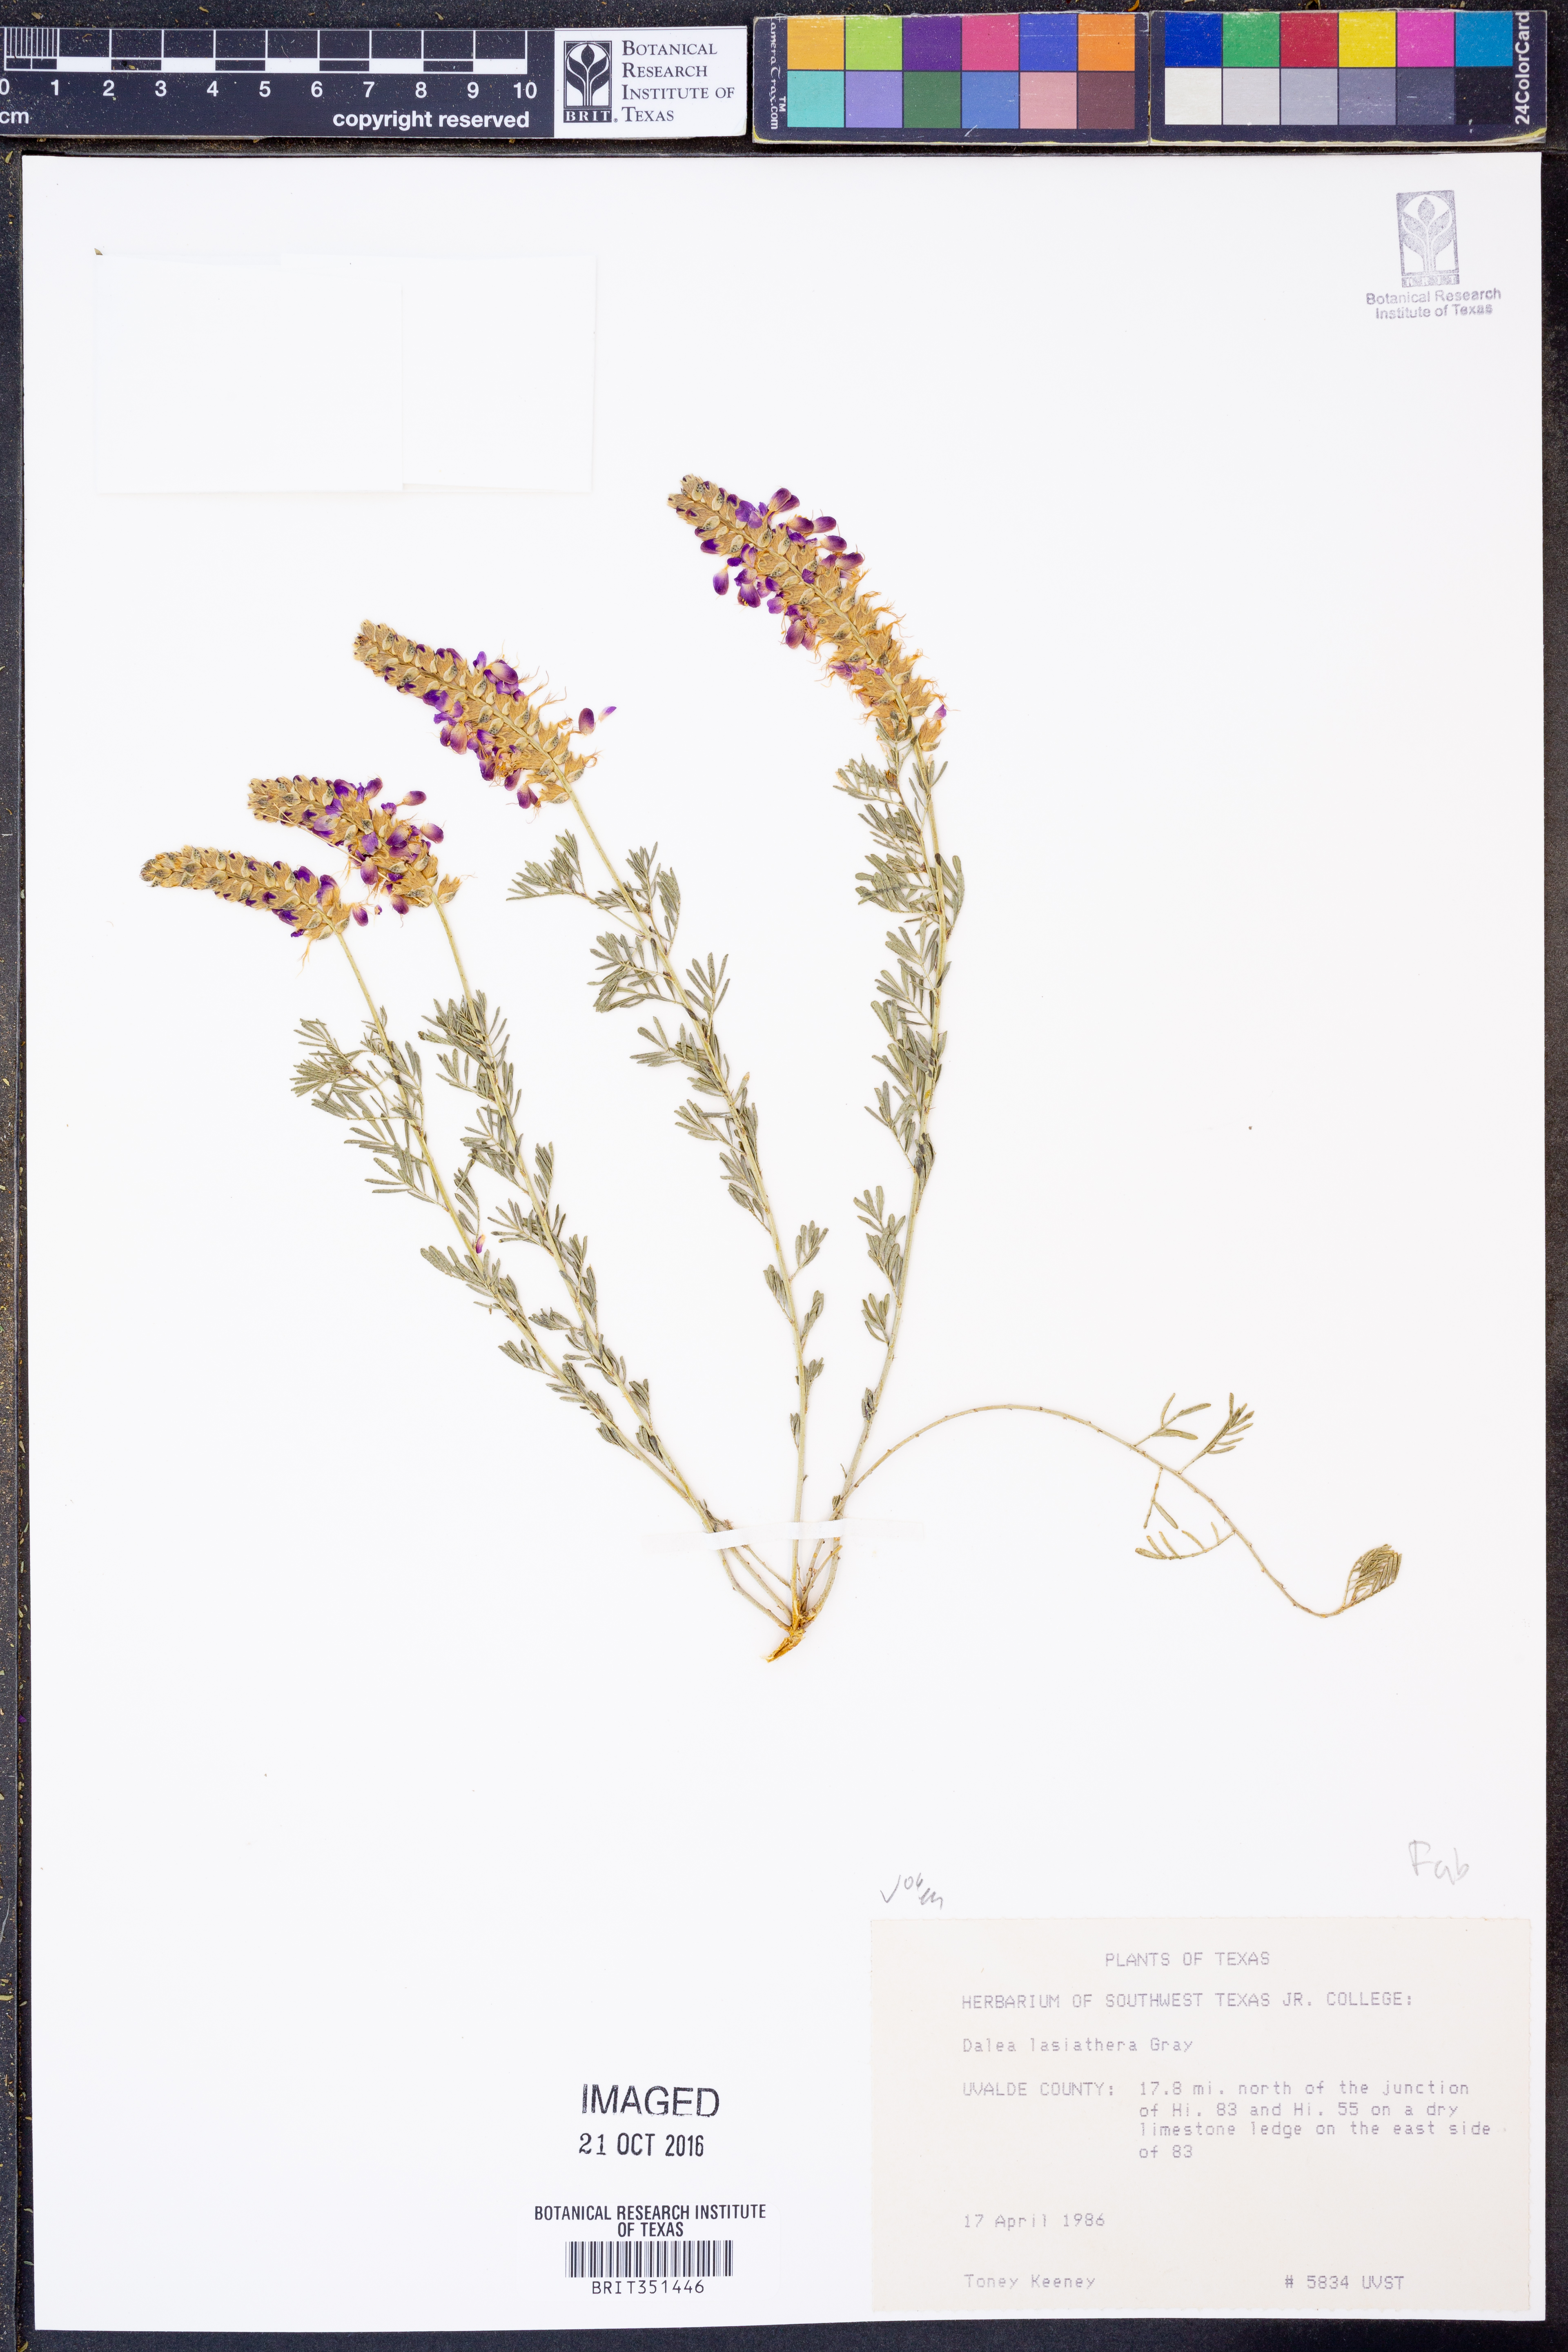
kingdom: Plantae
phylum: Tracheophyta
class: Magnoliopsida
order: Fabales
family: Fabaceae
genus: Dalea
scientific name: Dalea lasiathera
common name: Purple prairie-clover
